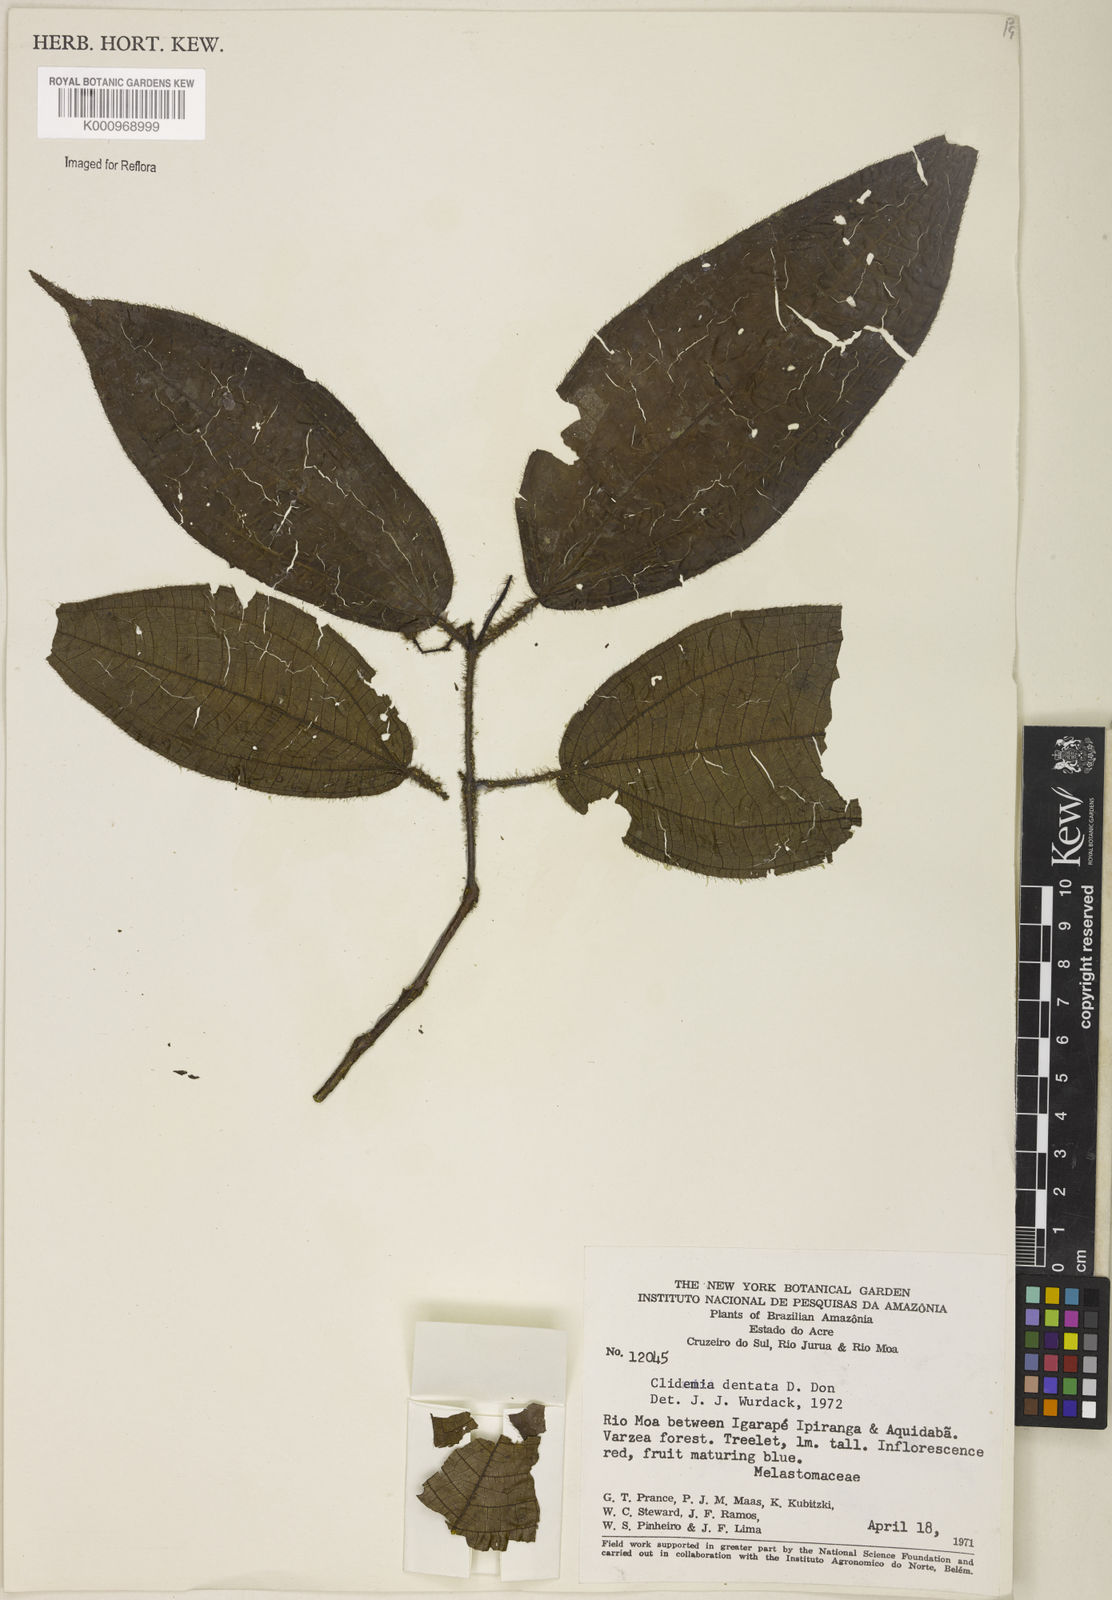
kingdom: Plantae
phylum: Tracheophyta
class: Magnoliopsida
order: Myrtales
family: Melastomataceae
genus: Miconia
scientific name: Miconia dentata
